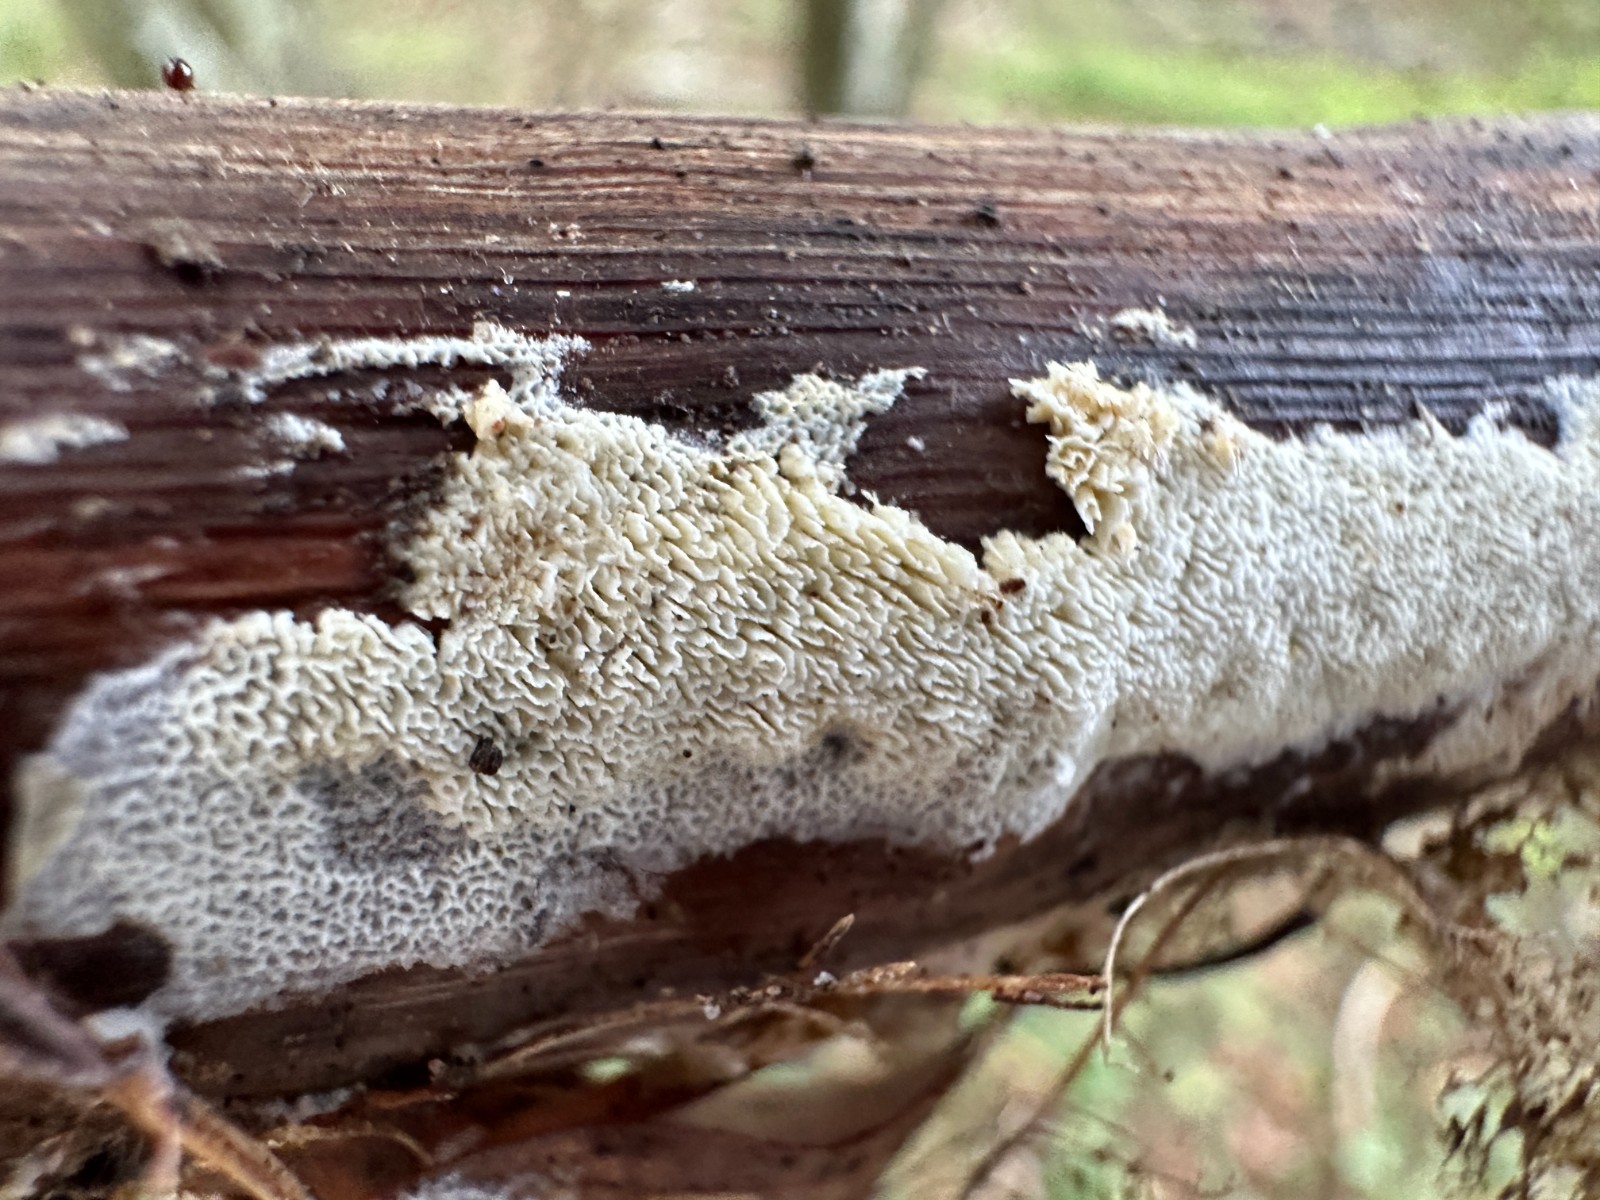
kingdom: Fungi
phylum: Basidiomycota
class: Agaricomycetes
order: Hymenochaetales
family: Schizoporaceae
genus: Xylodon
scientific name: Xylodon subtropicus
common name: labyrint-tandsvamp
